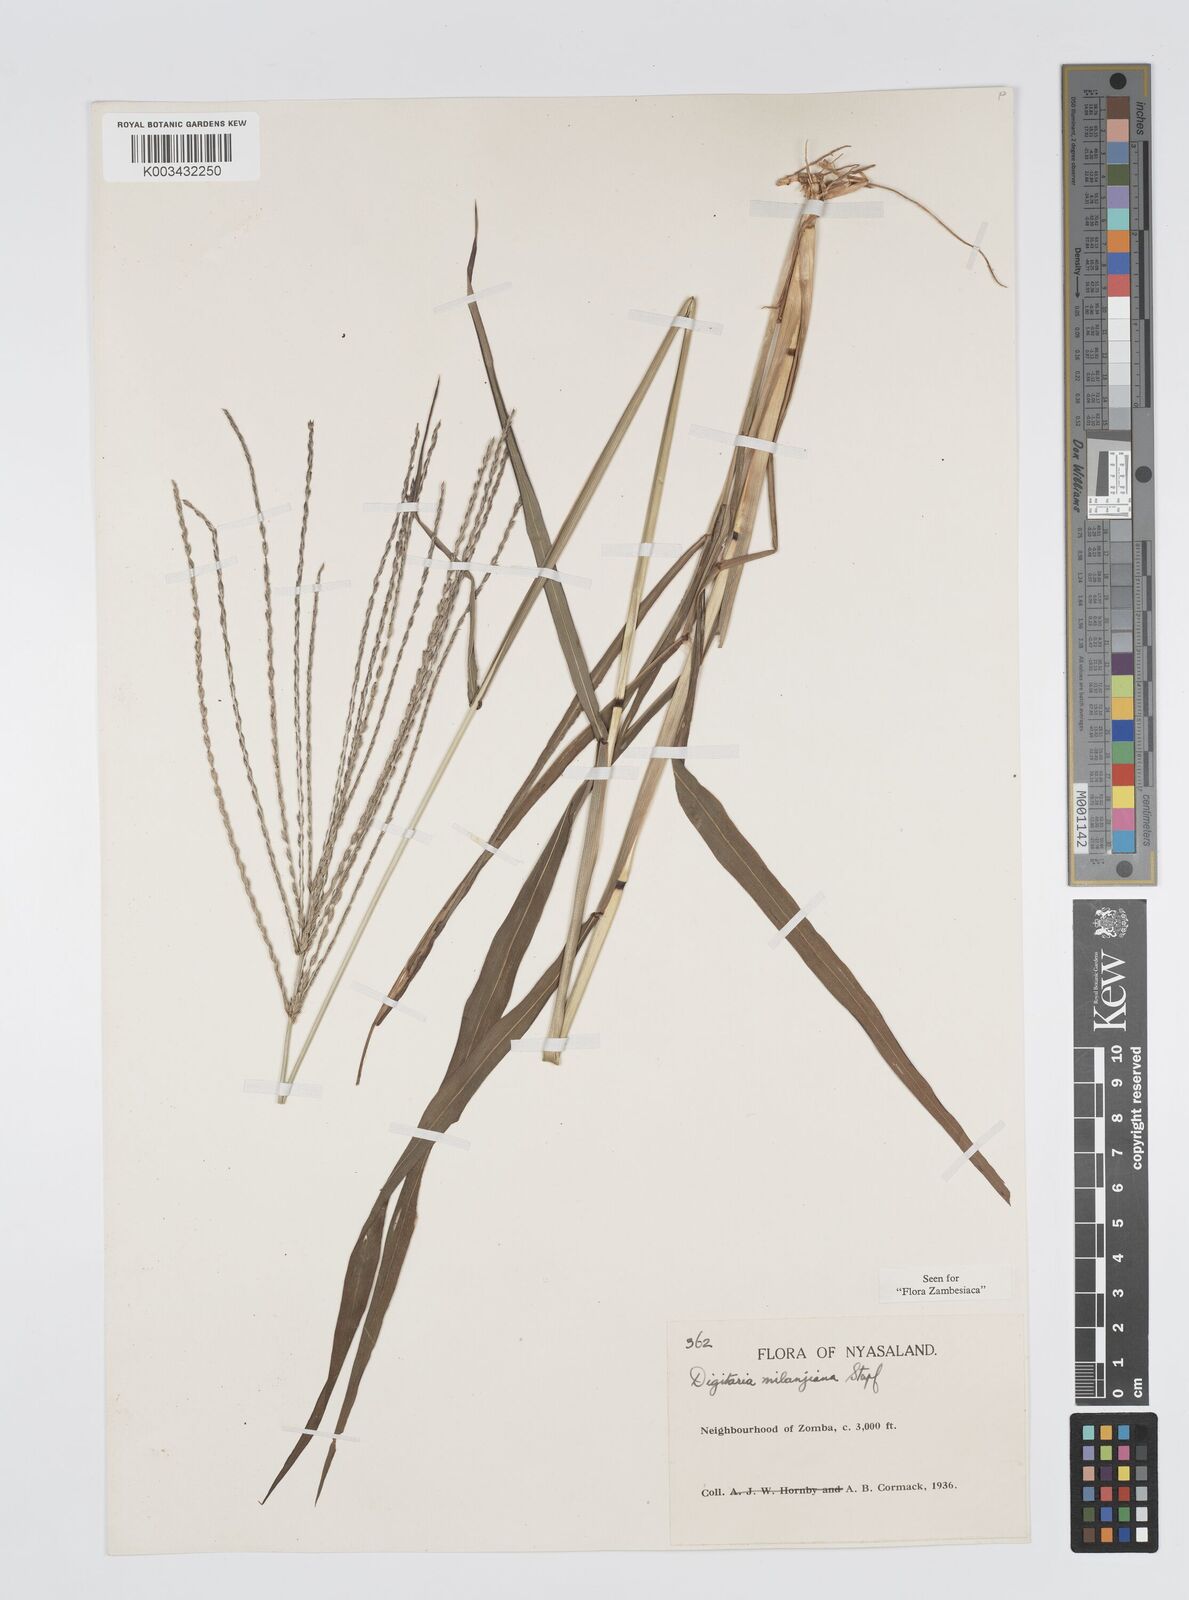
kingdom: Plantae
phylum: Tracheophyta
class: Liliopsida
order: Poales
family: Poaceae
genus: Digitaria
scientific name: Digitaria milanjiana
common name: Madagascar crabgrass
